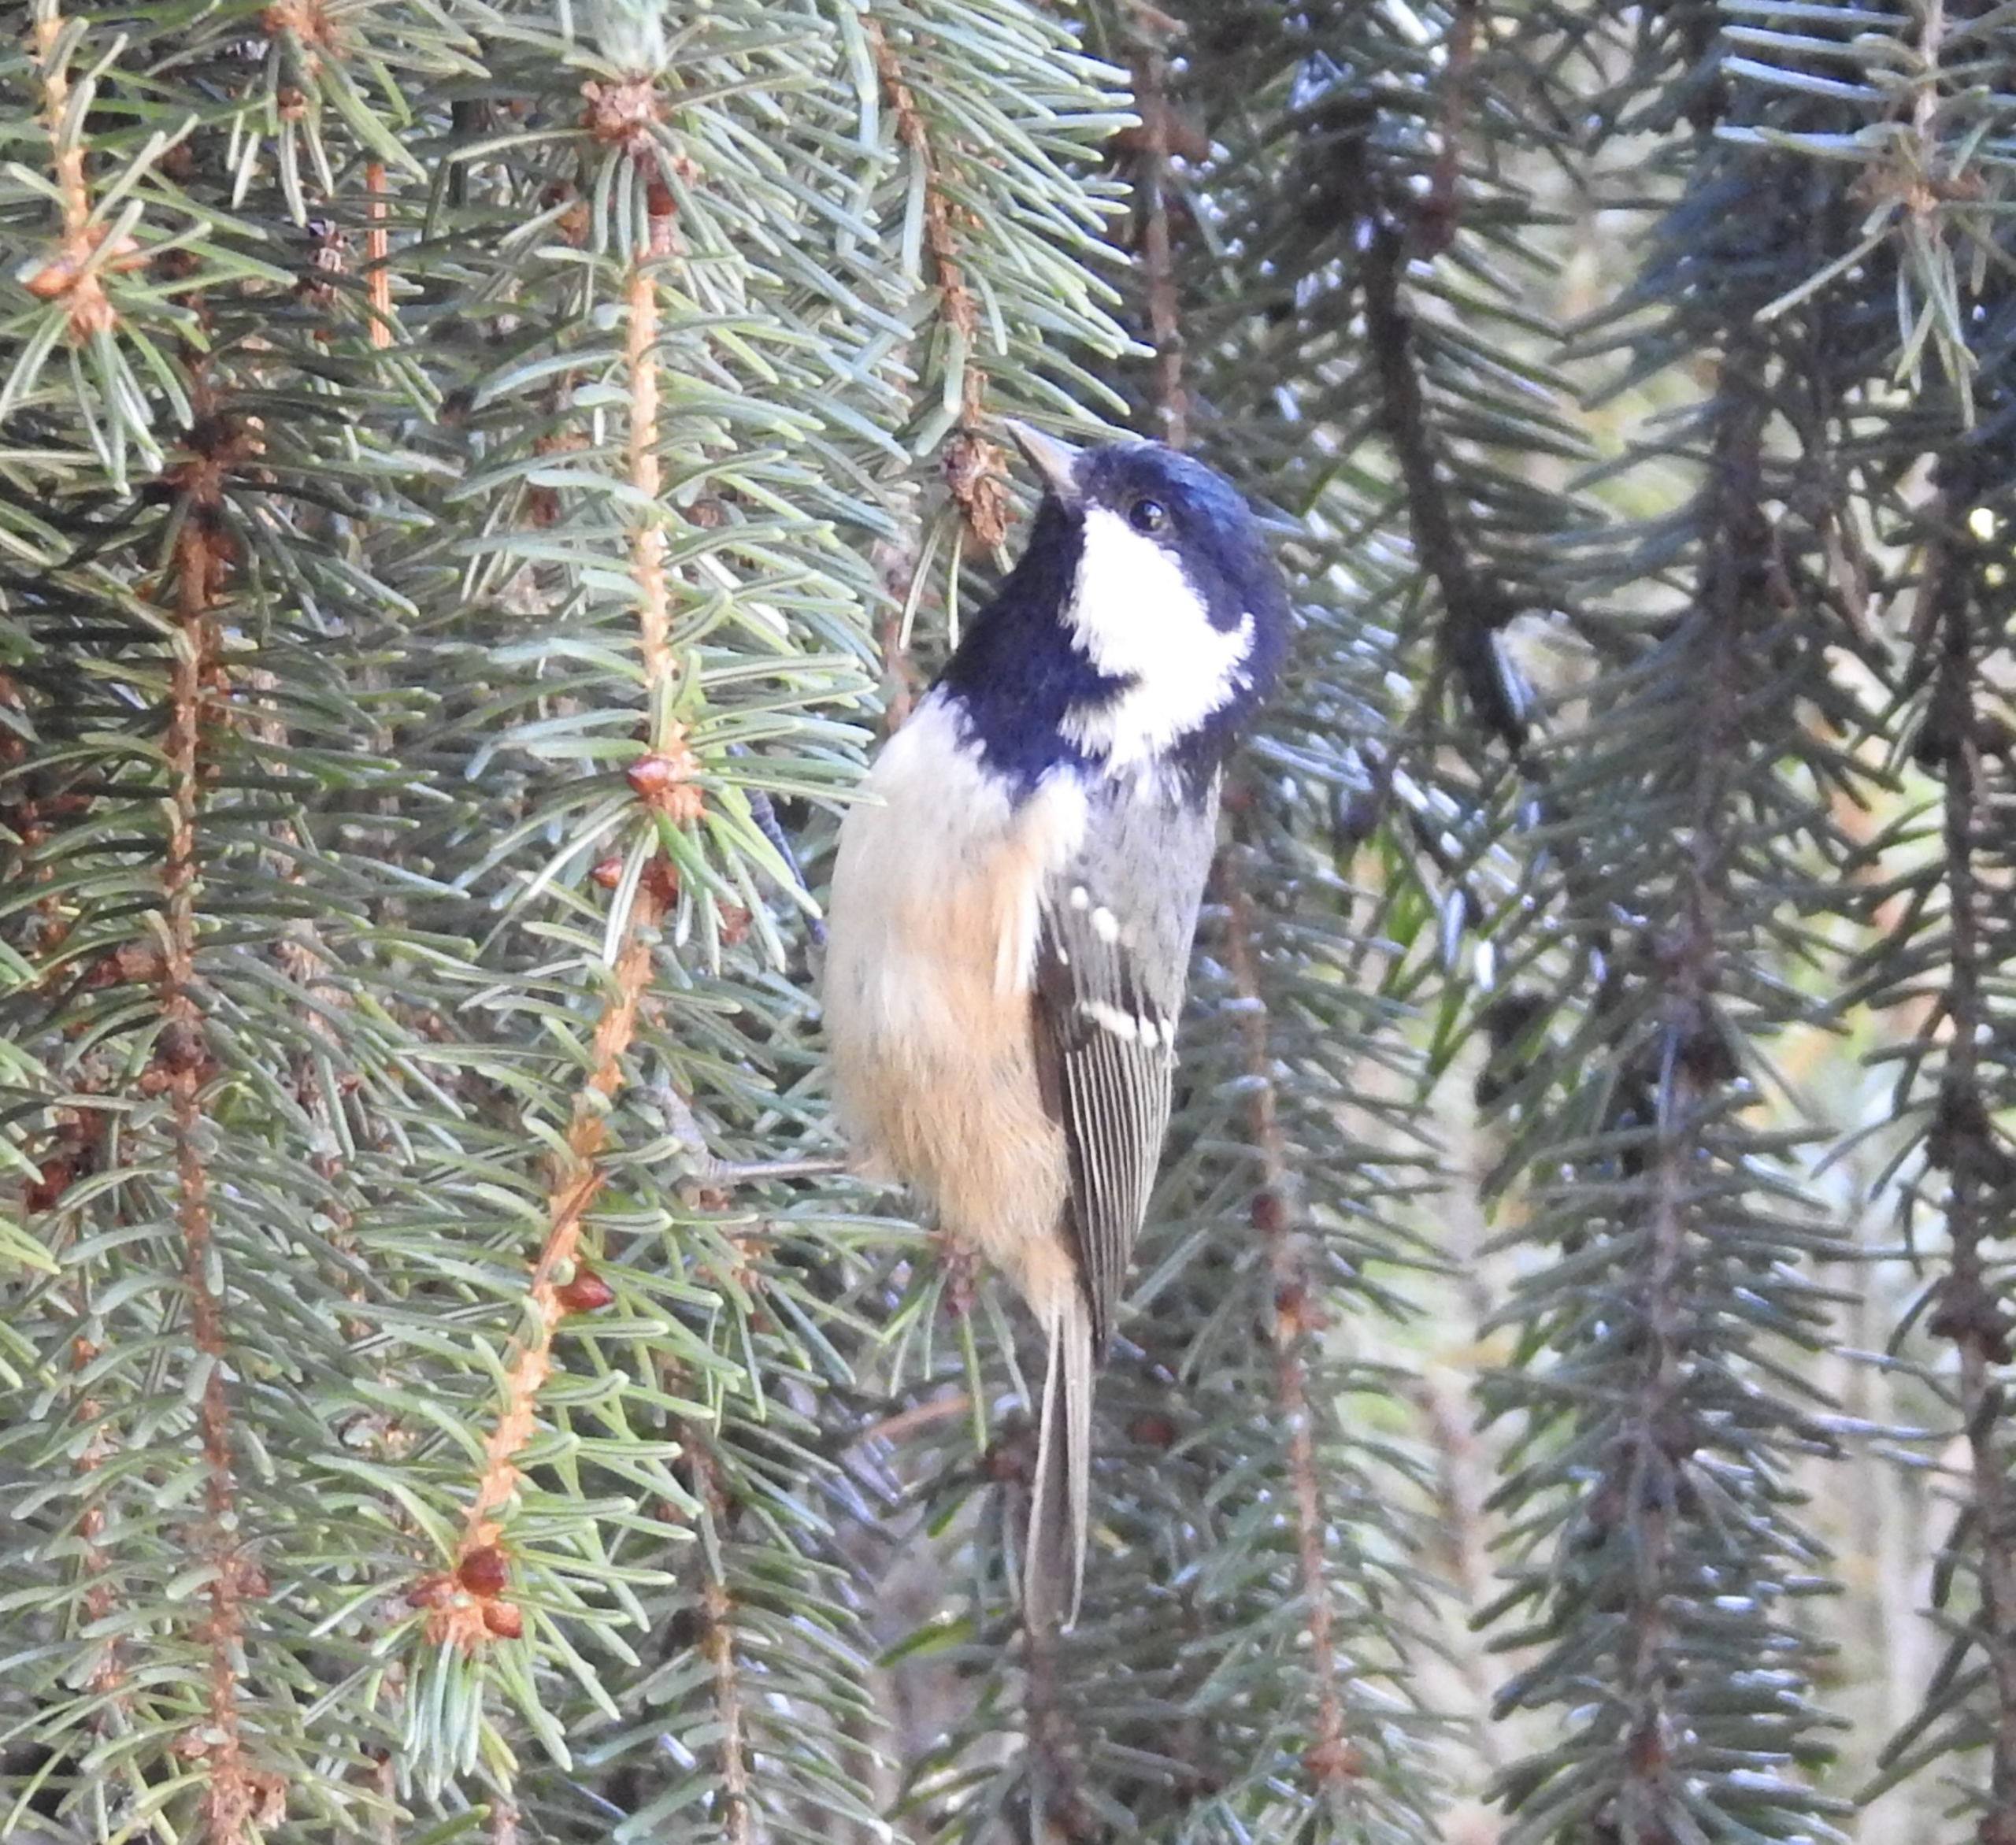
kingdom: Animalia
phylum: Chordata
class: Aves
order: Passeriformes
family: Paridae
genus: Periparus
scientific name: Periparus ater
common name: Sortmejse
